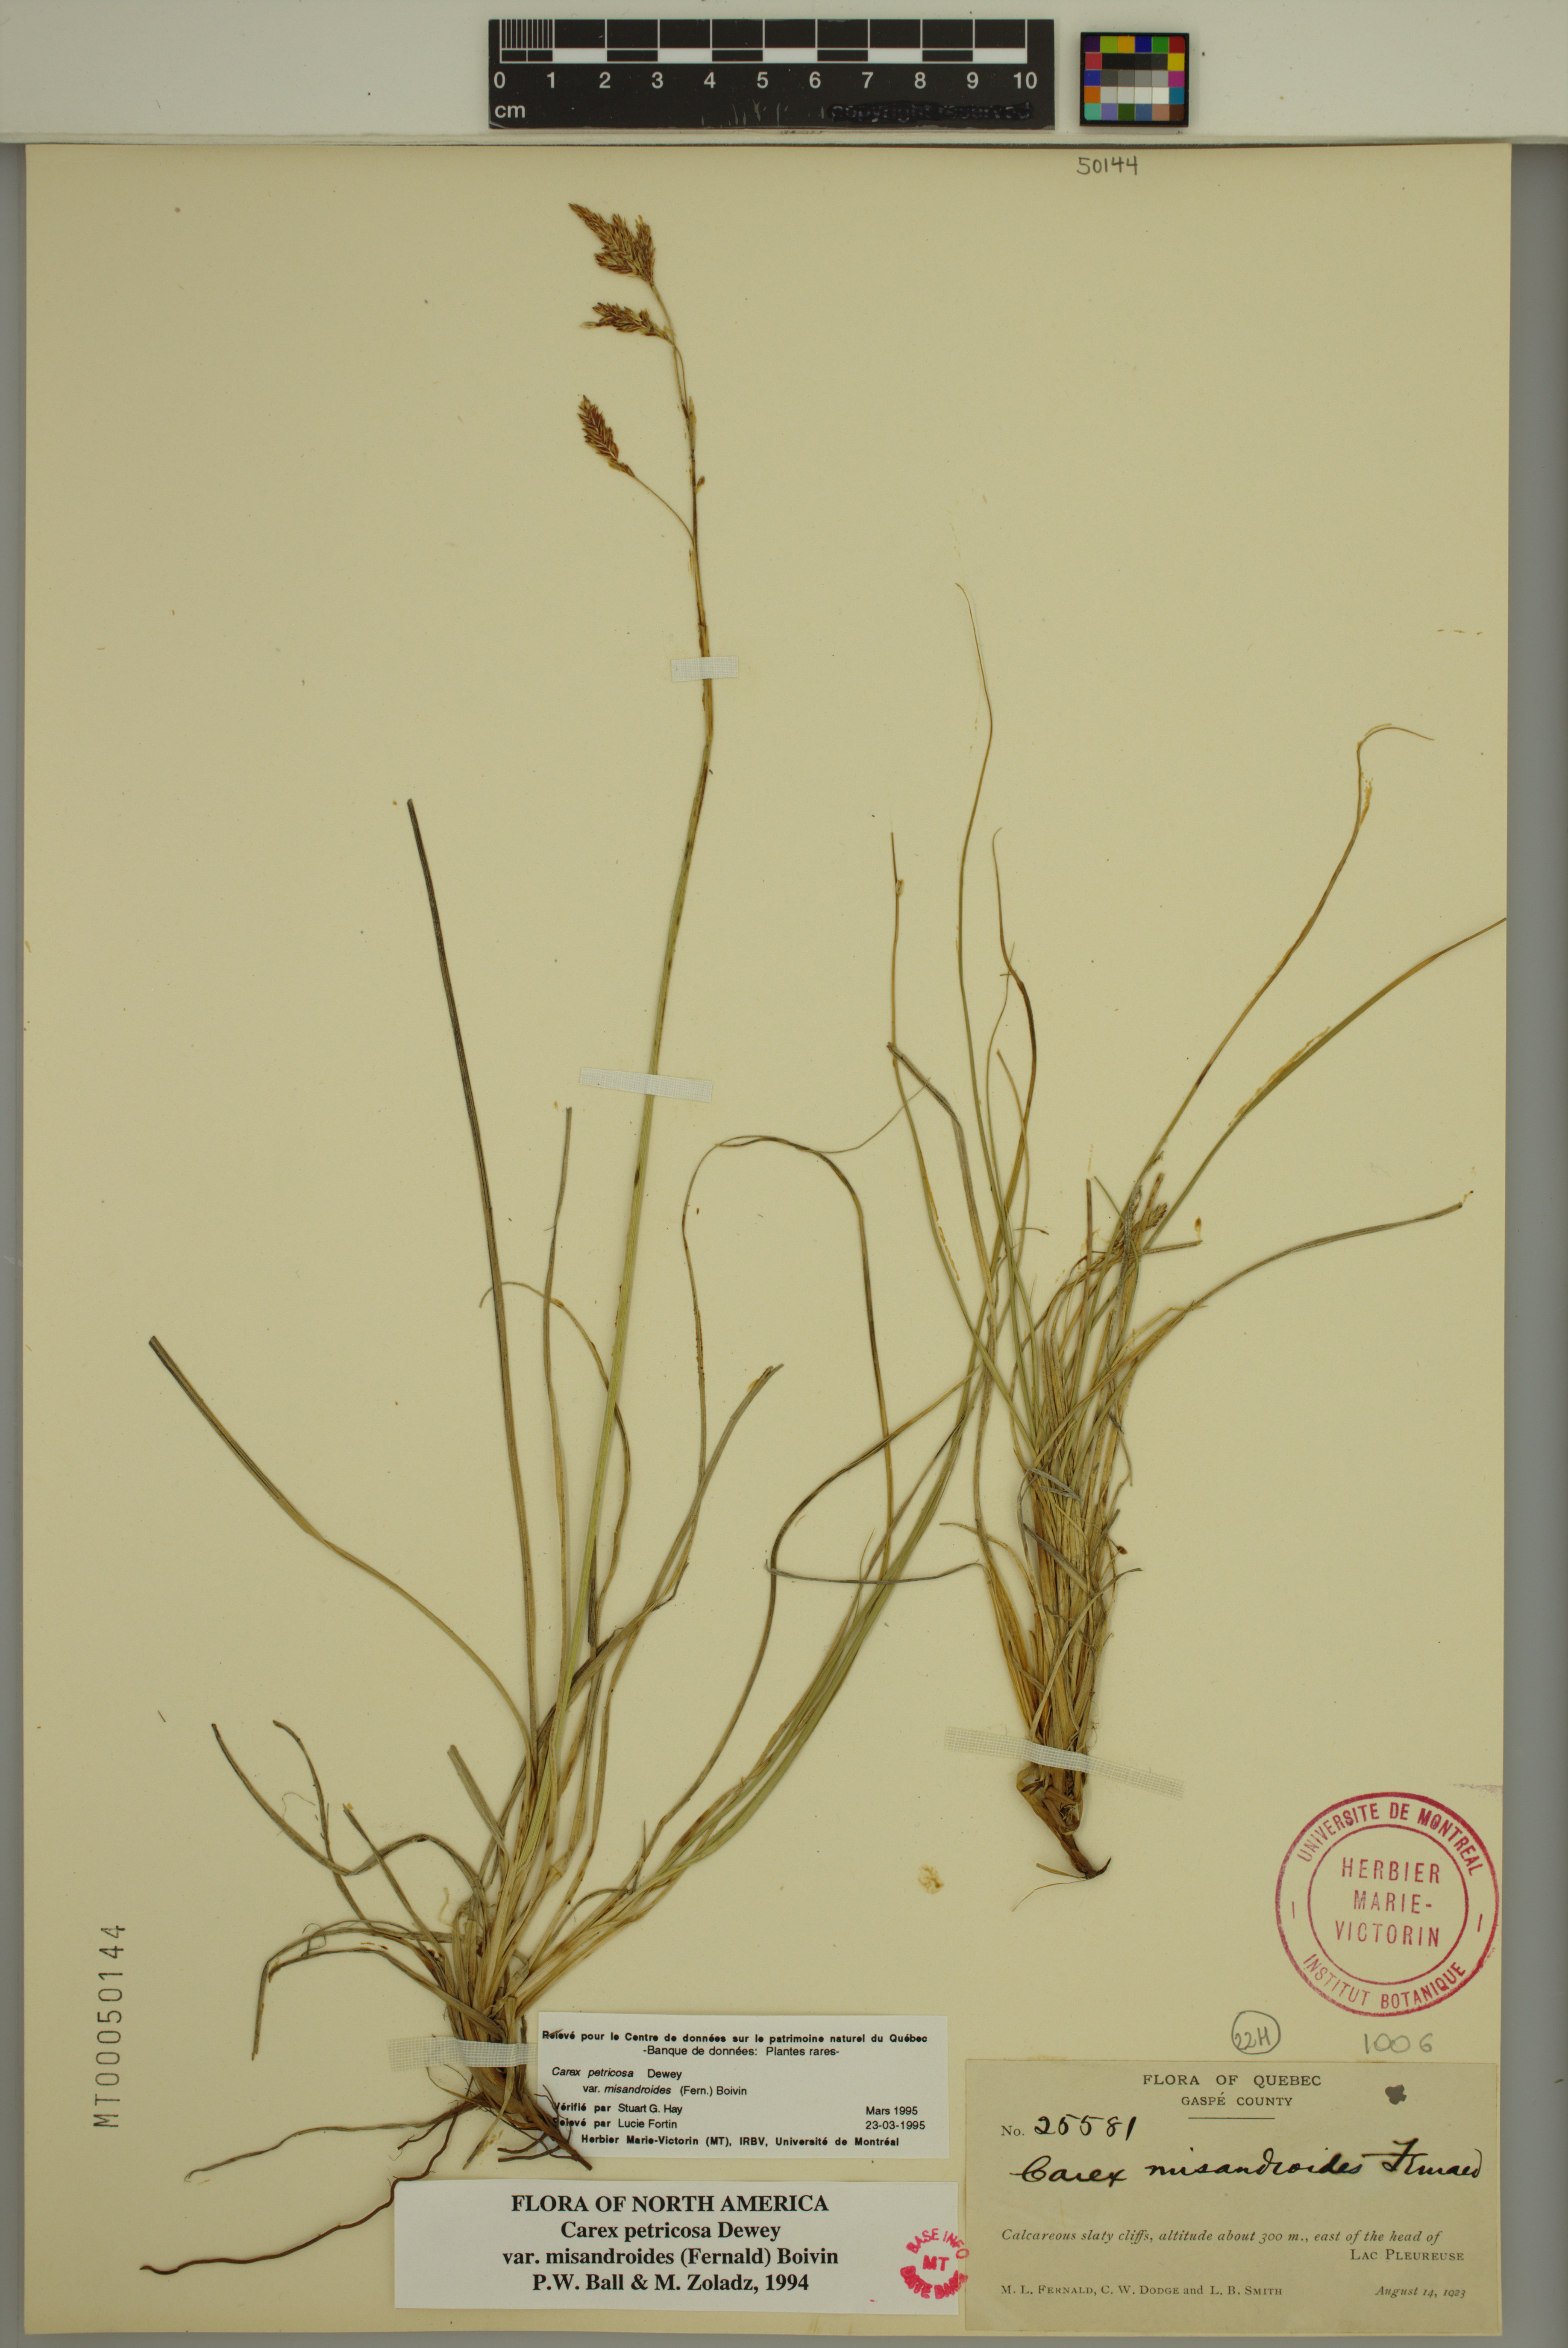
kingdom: Plantae
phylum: Tracheophyta
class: Liliopsida
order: Poales
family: Cyperaceae
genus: Carex
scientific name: Carex petricosa
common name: Rock sedge
